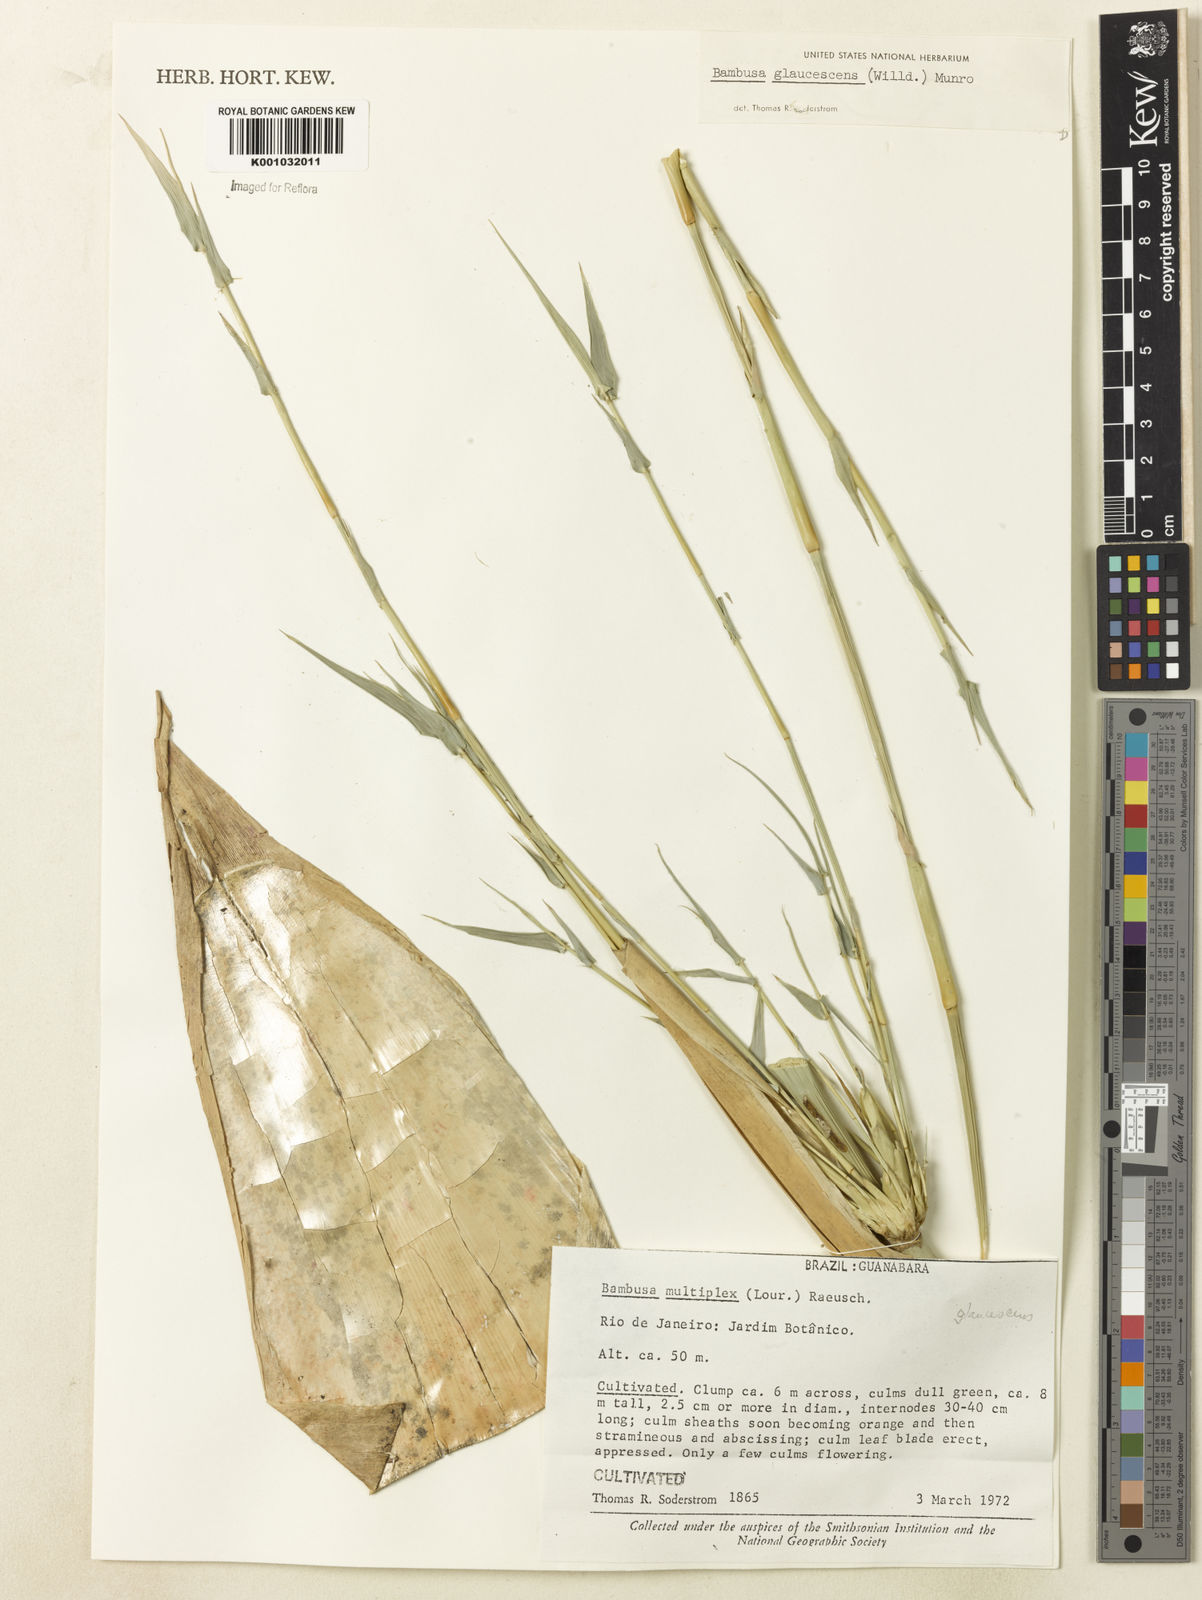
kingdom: Plantae
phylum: Tracheophyta
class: Liliopsida
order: Poales
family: Poaceae
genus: Bambusa
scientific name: Bambusa multiplex
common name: Hedge bamboo
